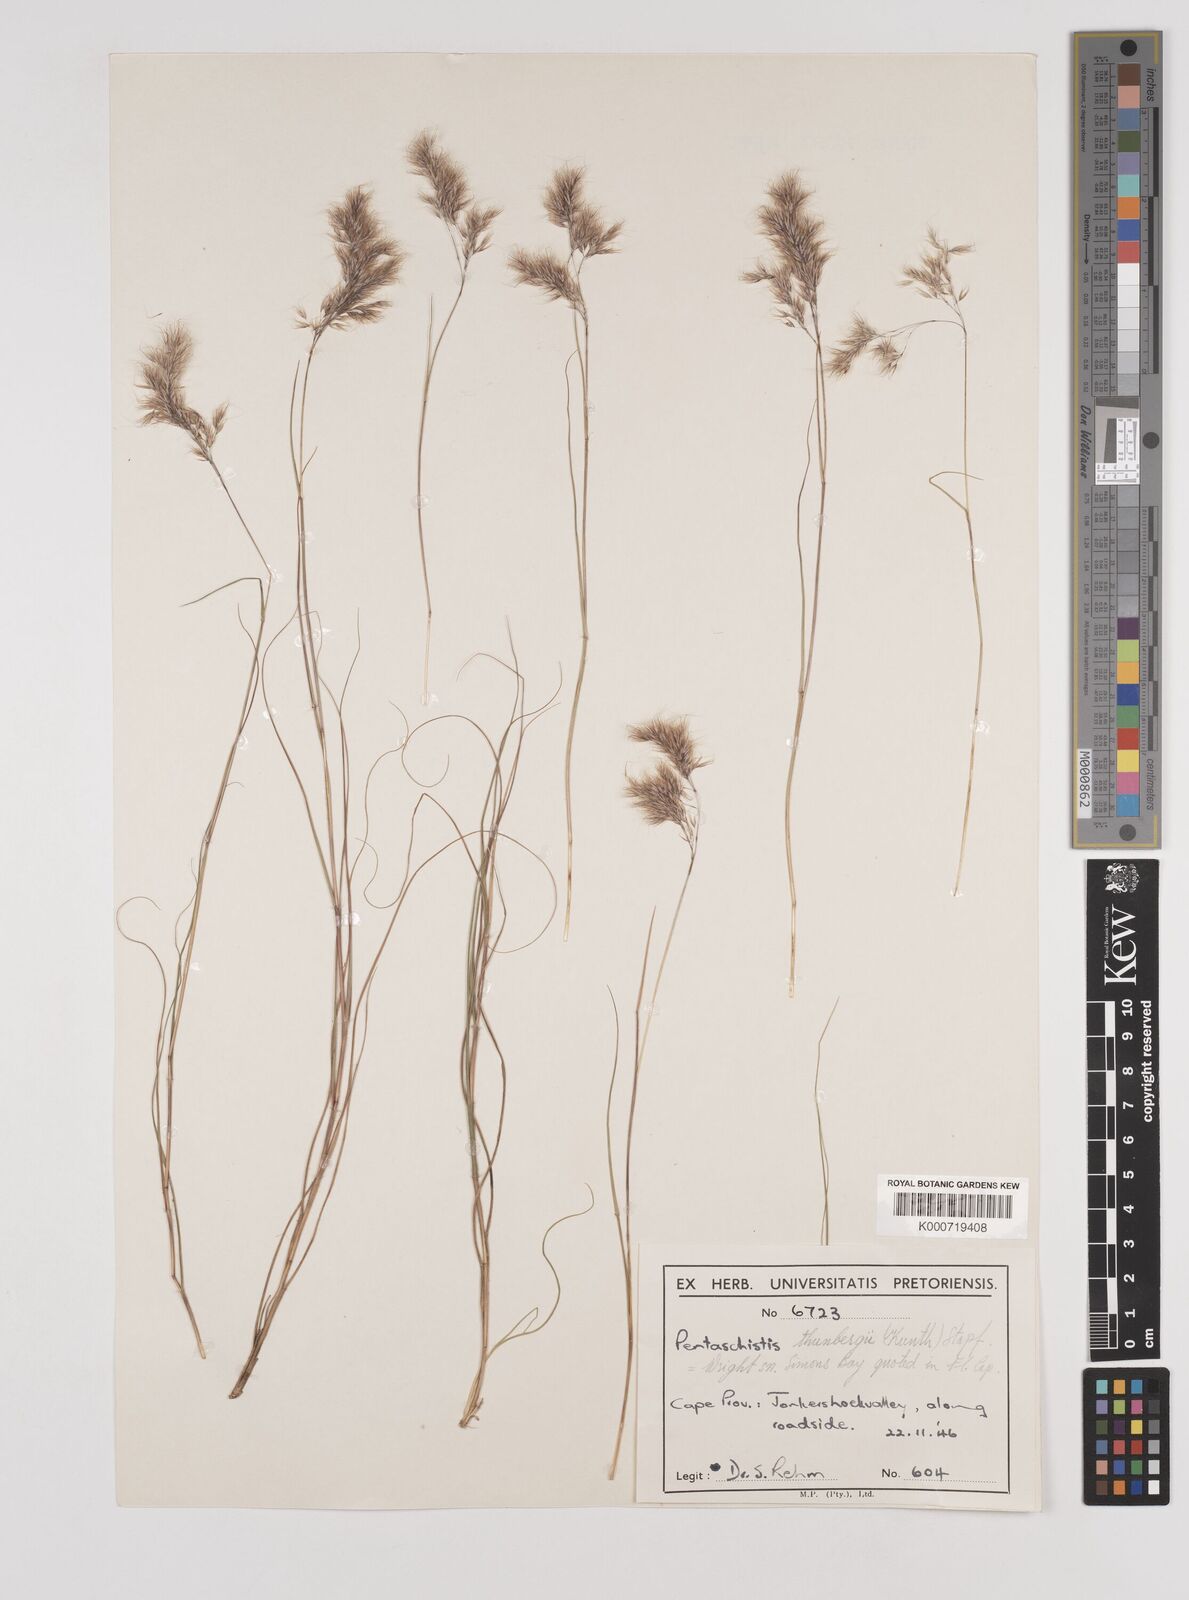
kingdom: Plantae
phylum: Tracheophyta
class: Liliopsida
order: Poales
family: Poaceae
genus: Pentameris
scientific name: Pentameris triseta
